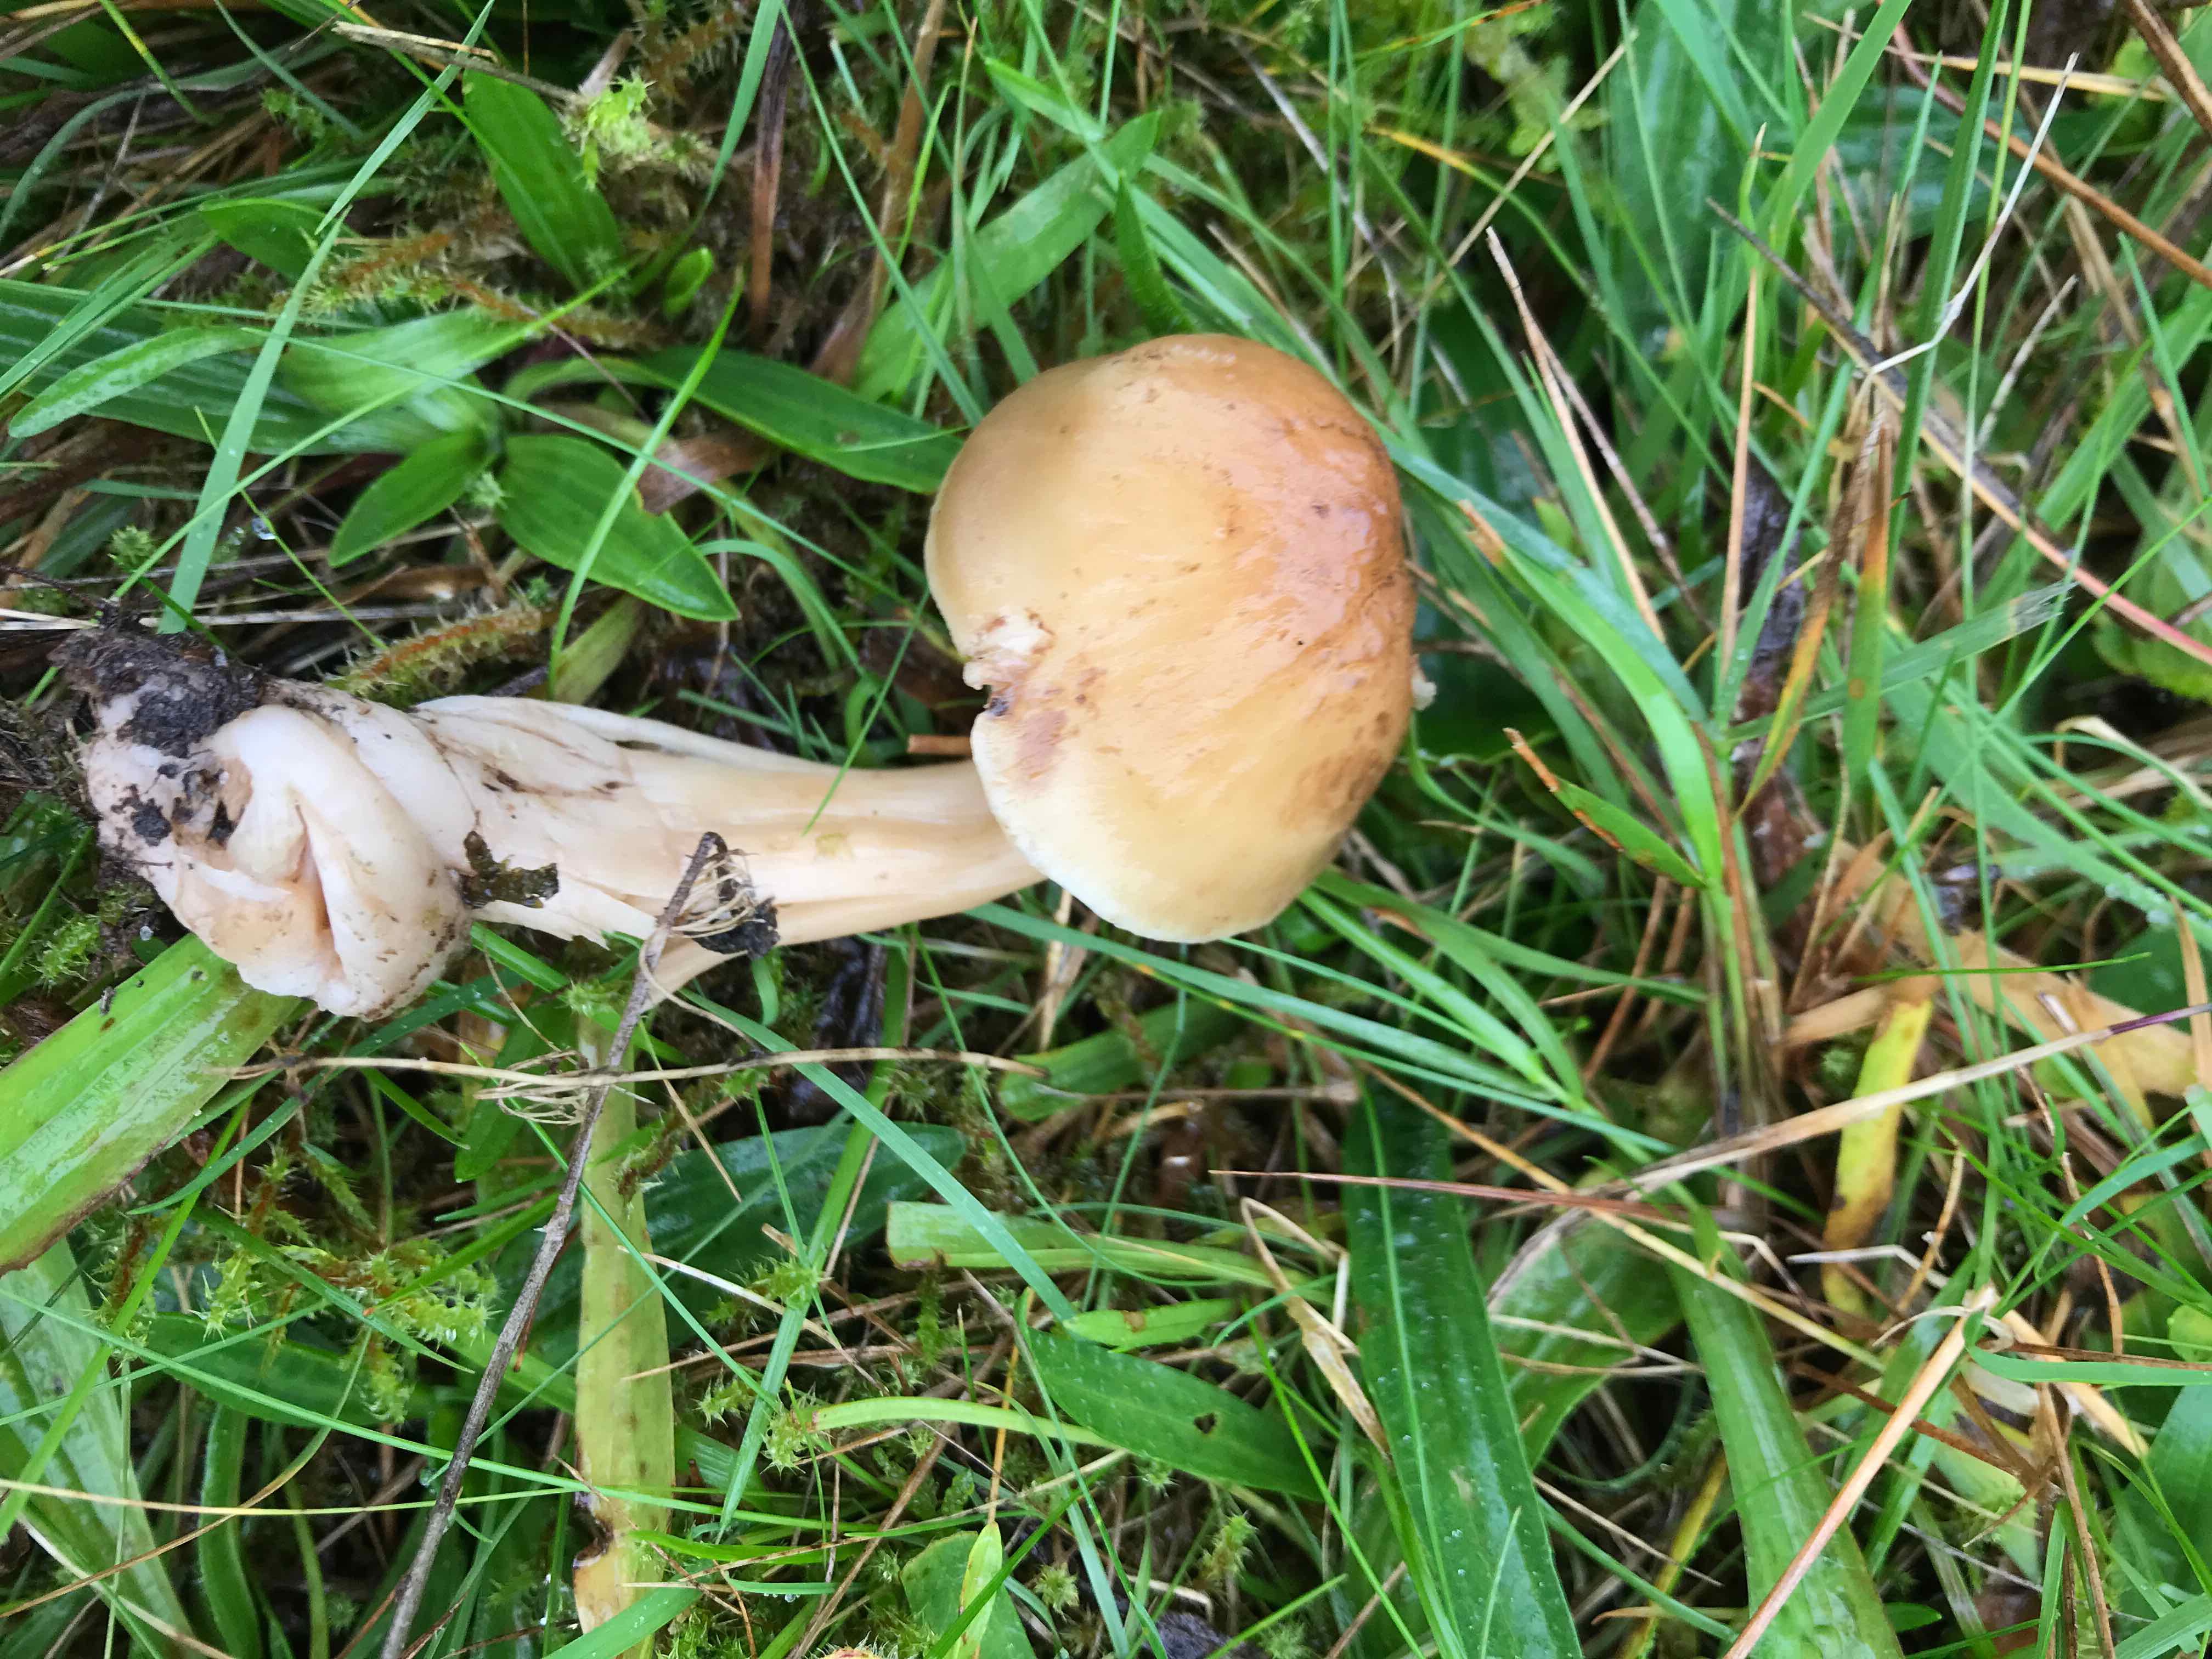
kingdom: Fungi
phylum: Basidiomycota
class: Agaricomycetes
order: Agaricales
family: Hygrophoraceae
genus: Hygrocybe
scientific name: Hygrocybe ingrata
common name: Jensens vokshat
